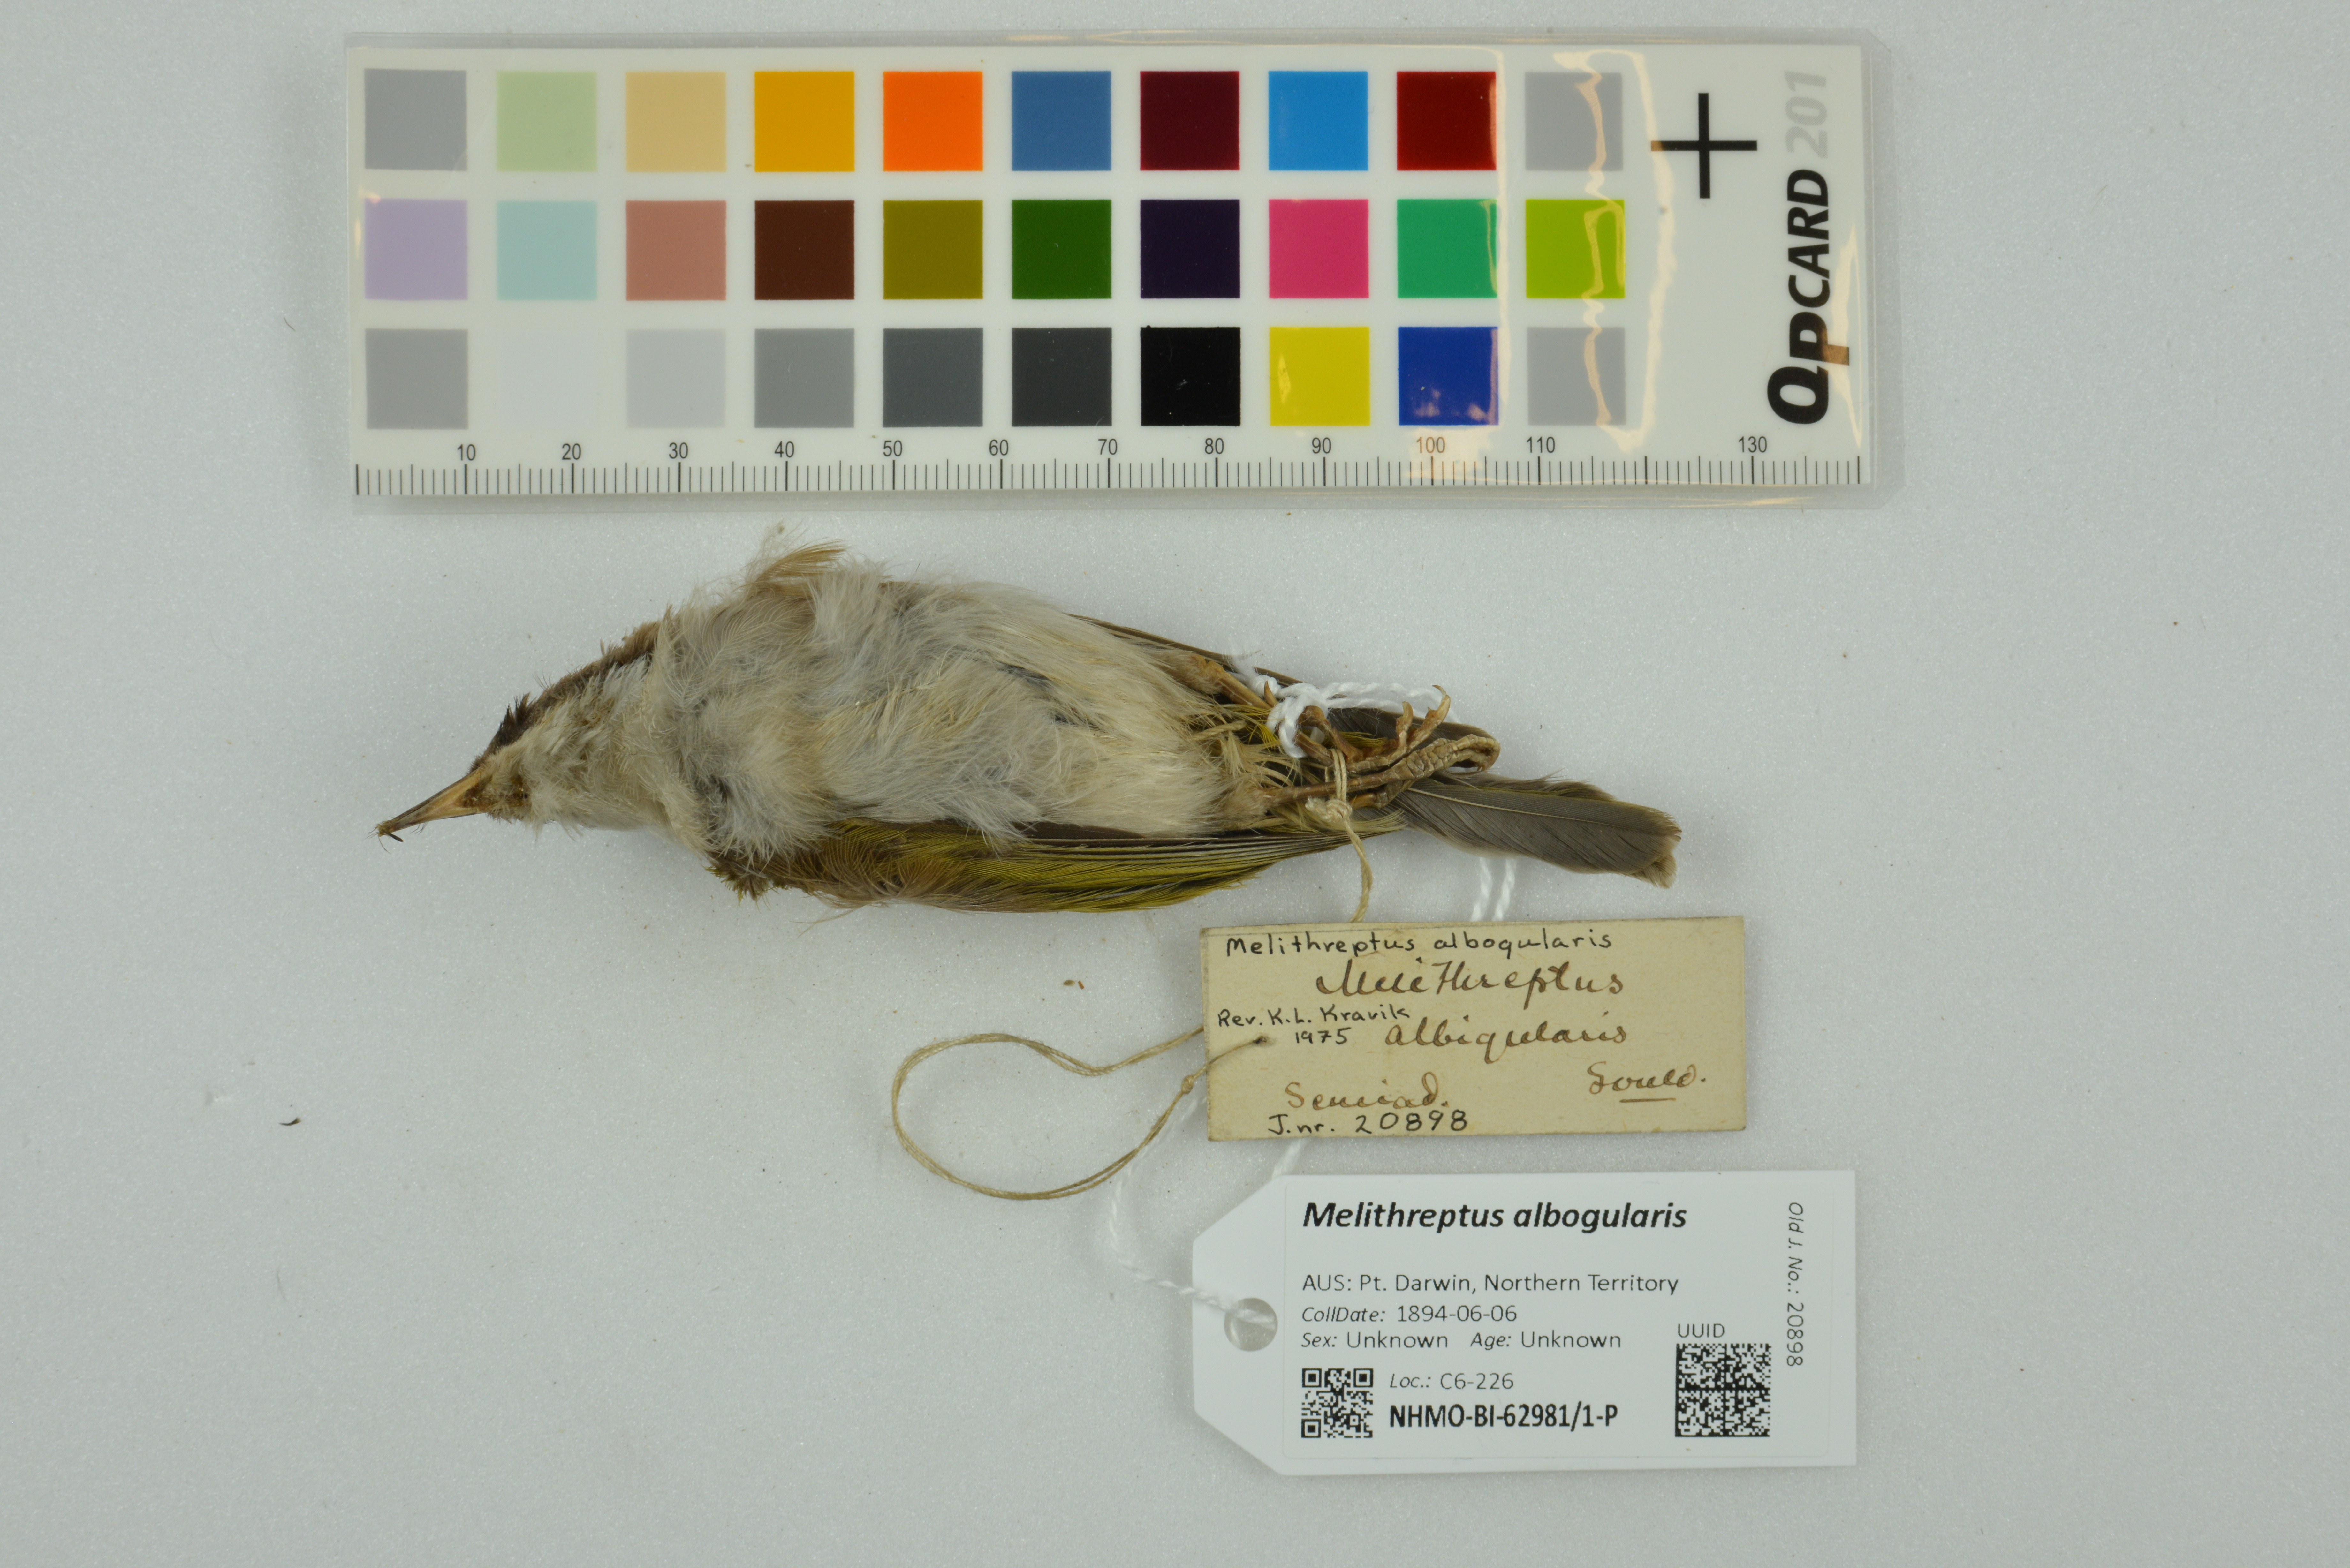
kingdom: Animalia
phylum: Chordata
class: Aves
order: Passeriformes
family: Meliphagidae
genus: Melithreptus
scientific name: Melithreptus albogularis
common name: White-throated honeyeater
